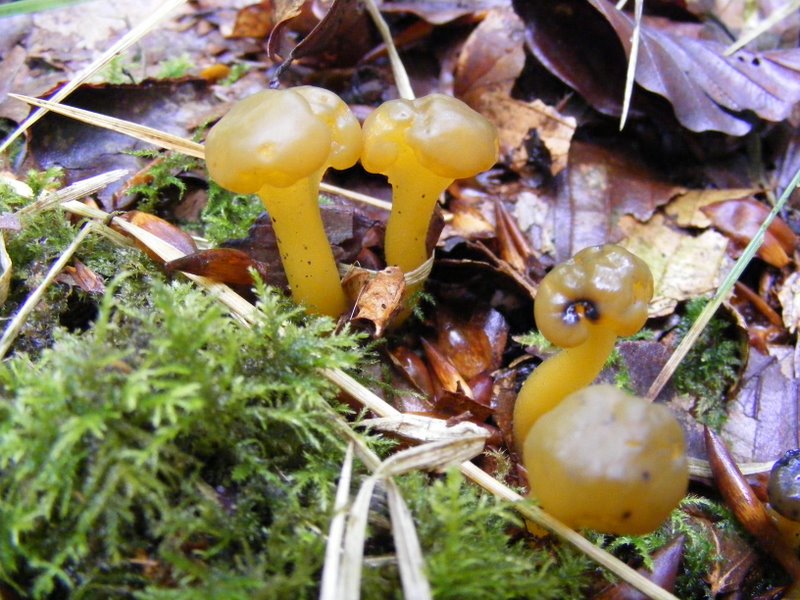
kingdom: Fungi
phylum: Ascomycota
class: Leotiomycetes
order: Leotiales
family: Leotiaceae
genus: Leotia
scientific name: Leotia lubrica
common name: ravsvamp
